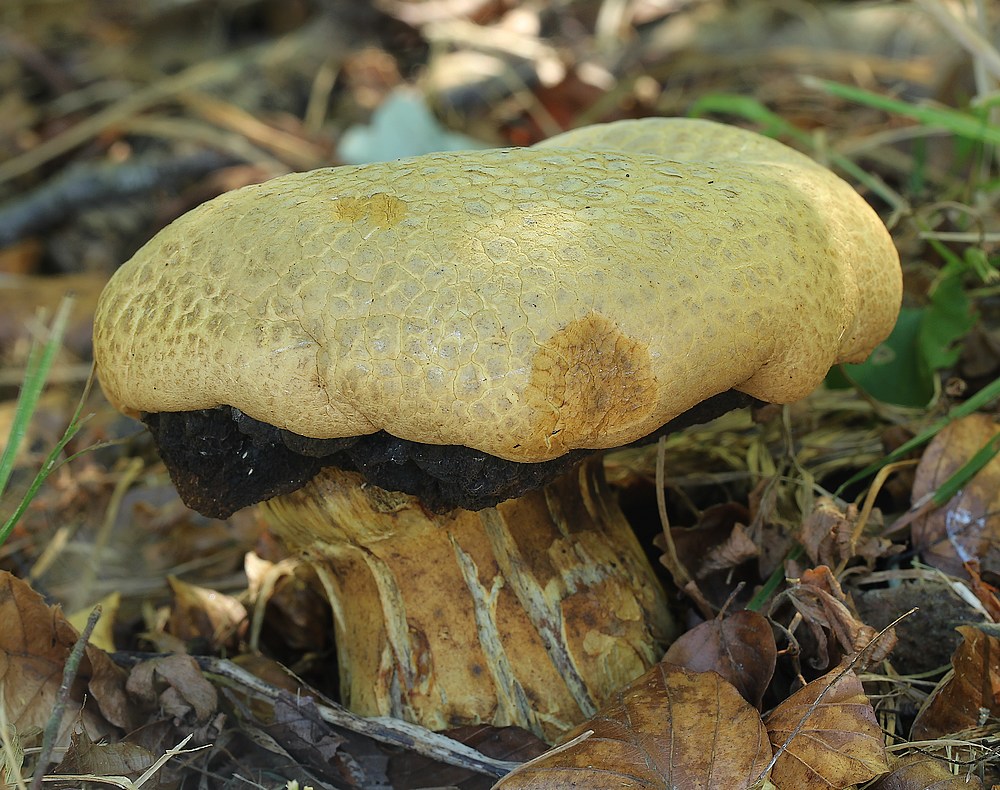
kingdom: Fungi
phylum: Basidiomycota
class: Agaricomycetes
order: Boletales
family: Boletaceae
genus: Caloboletus
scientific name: Caloboletus radicans
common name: rod-rørhat
